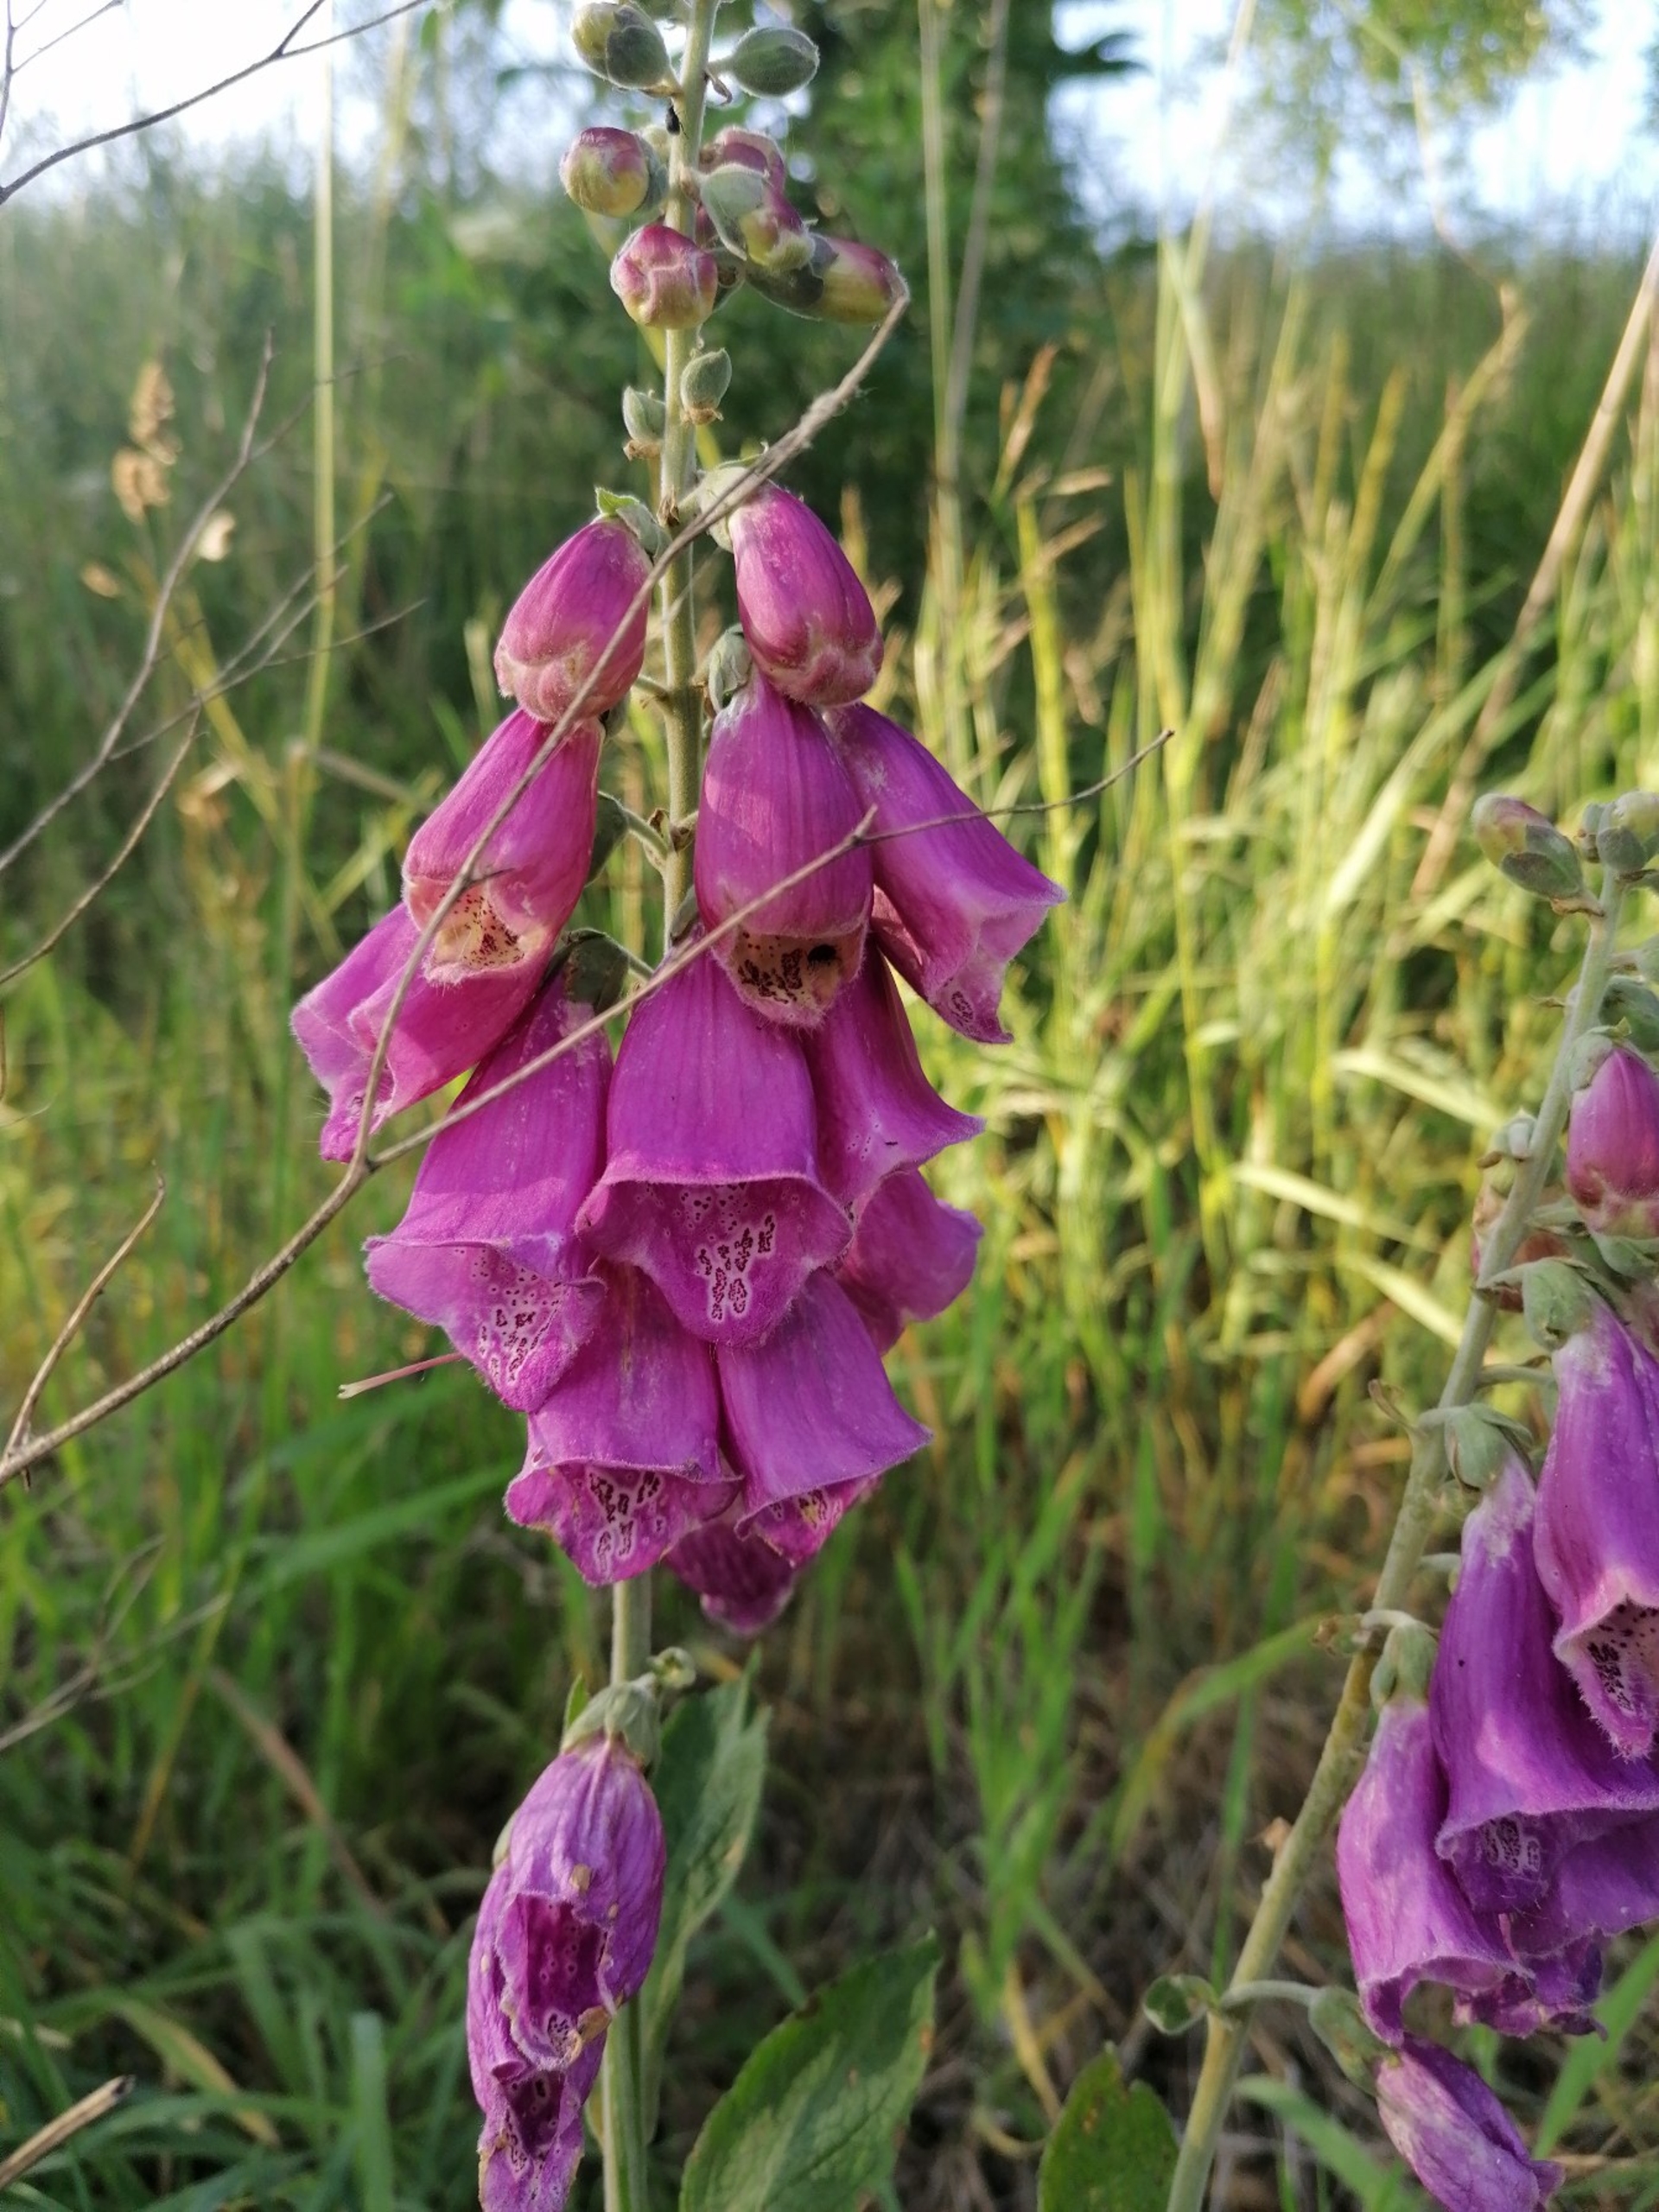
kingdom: Plantae
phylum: Tracheophyta
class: Magnoliopsida
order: Lamiales
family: Plantaginaceae
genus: Digitalis
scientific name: Digitalis purpurea
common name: Almindelig fingerbøl
